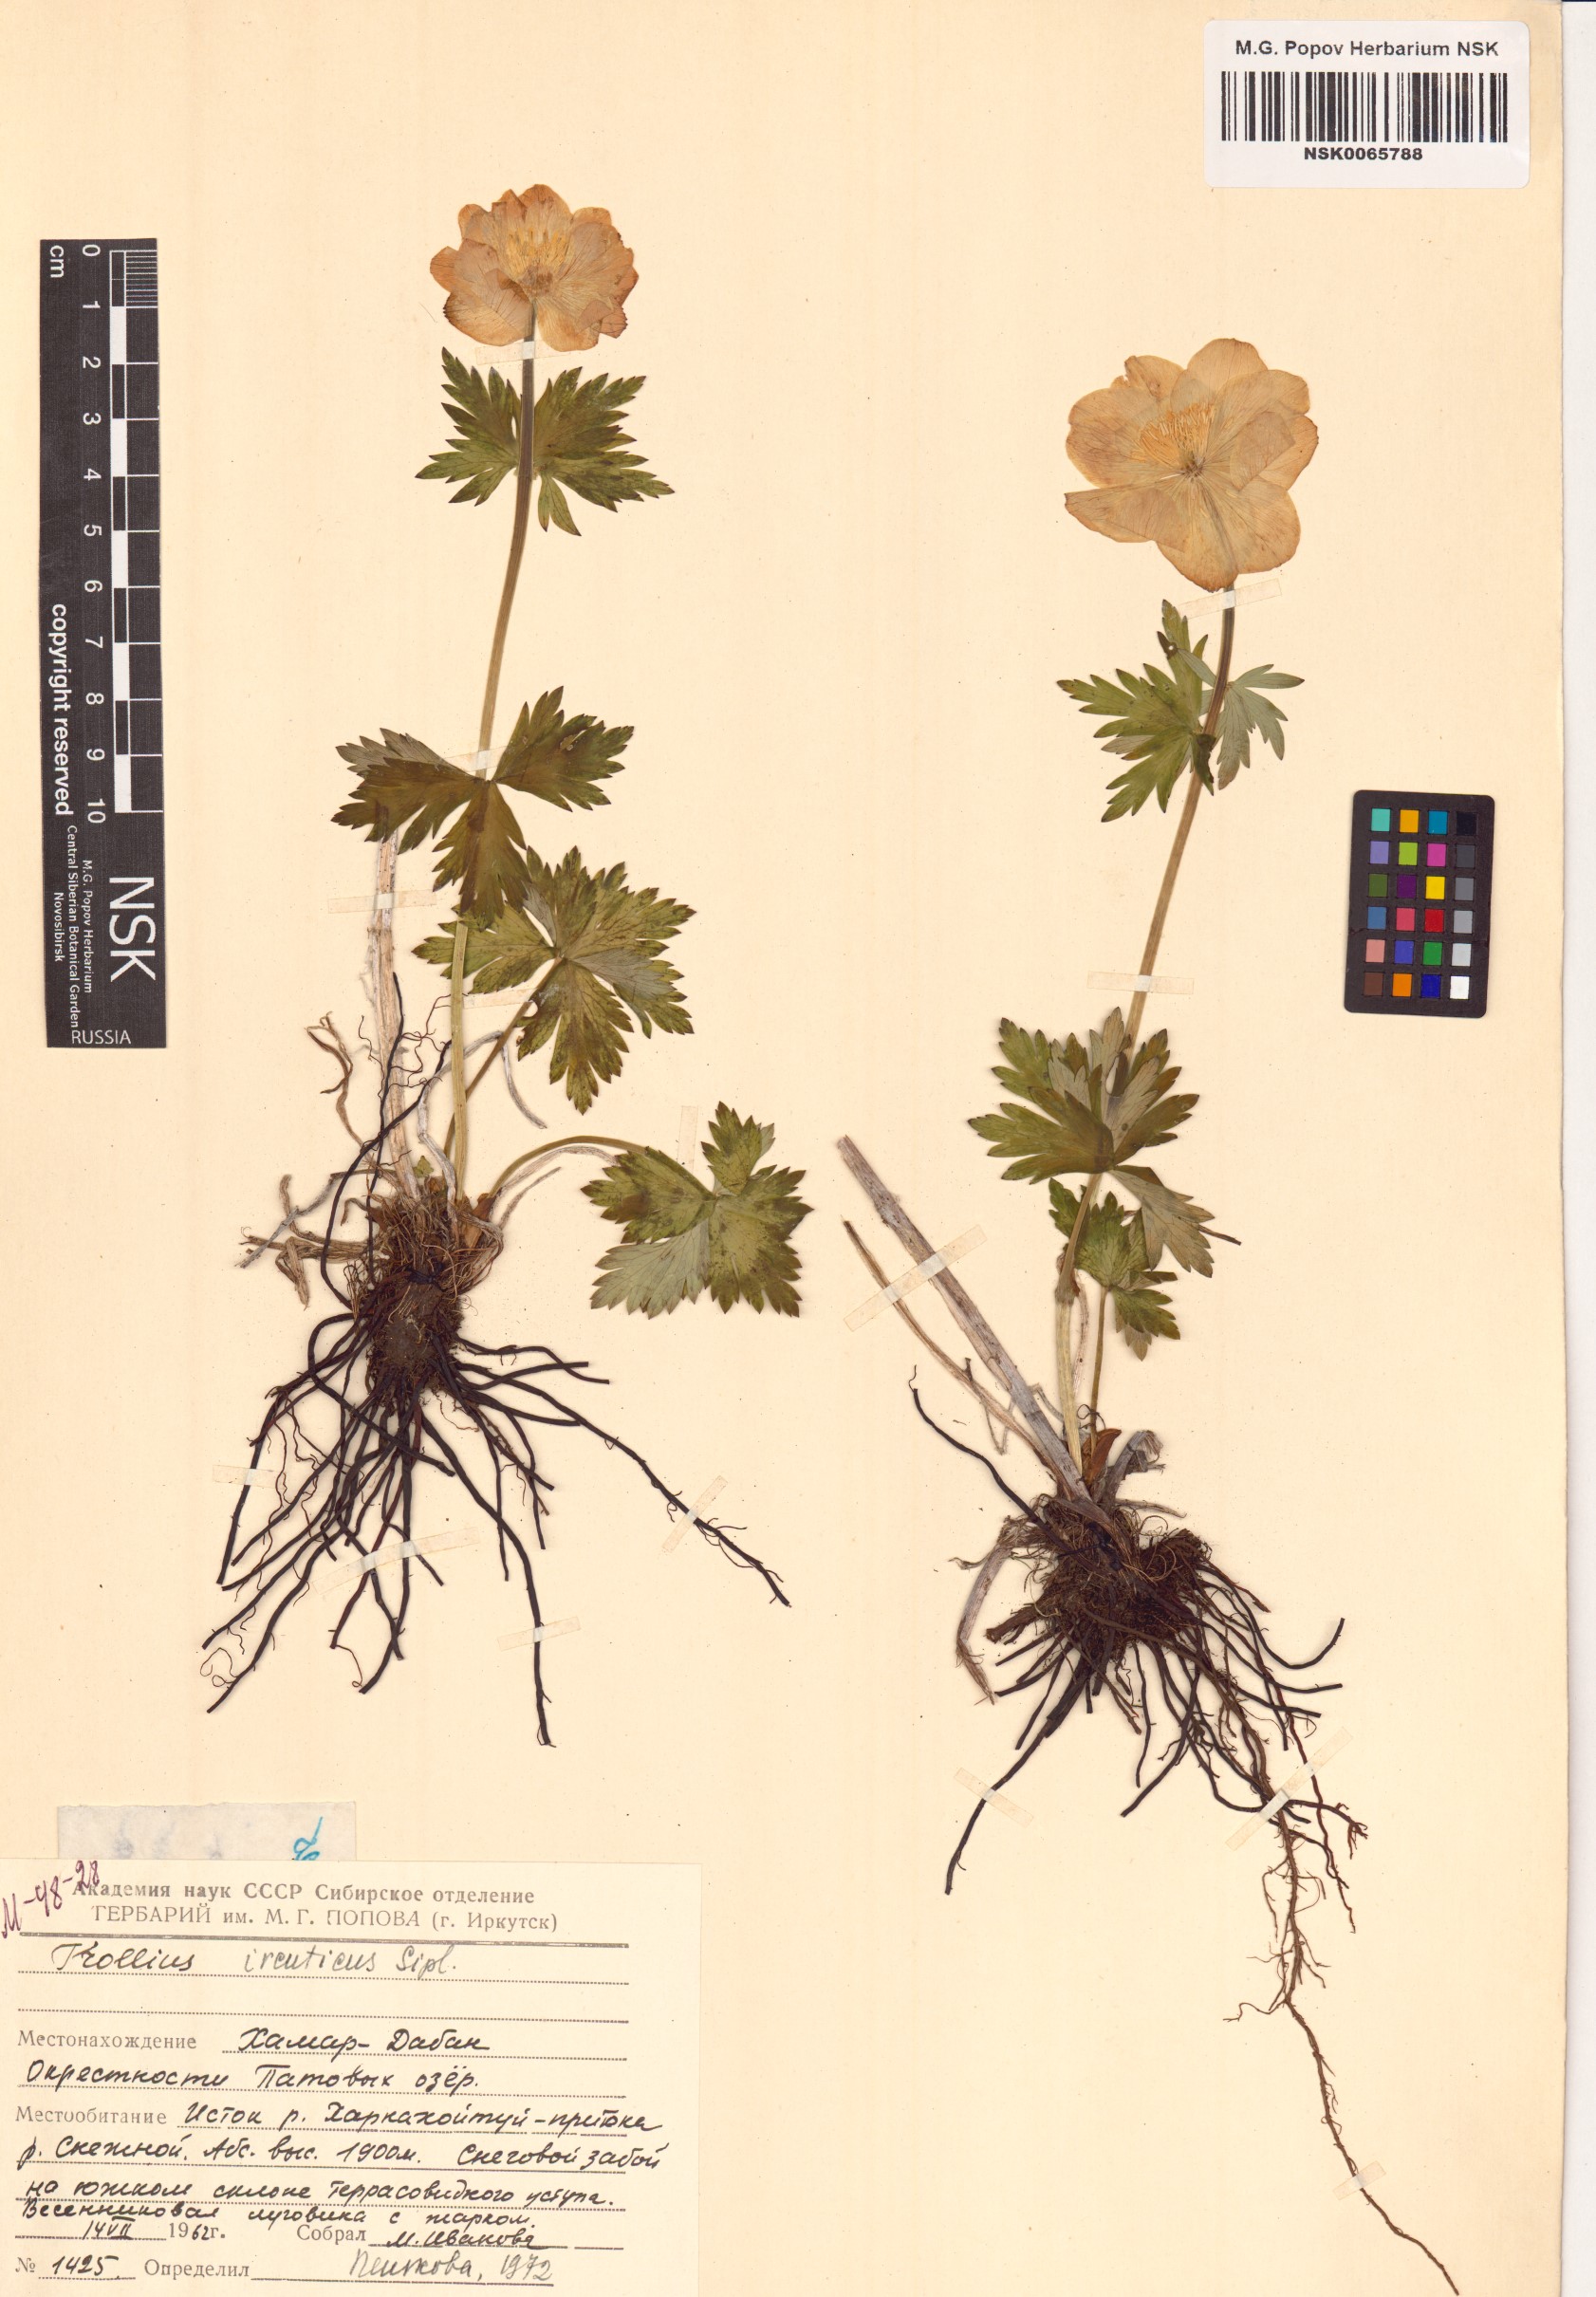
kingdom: Plantae
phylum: Tracheophyta
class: Magnoliopsida
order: Ranunculales
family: Ranunculaceae
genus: Trollius
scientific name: Trollius kytmanovii
